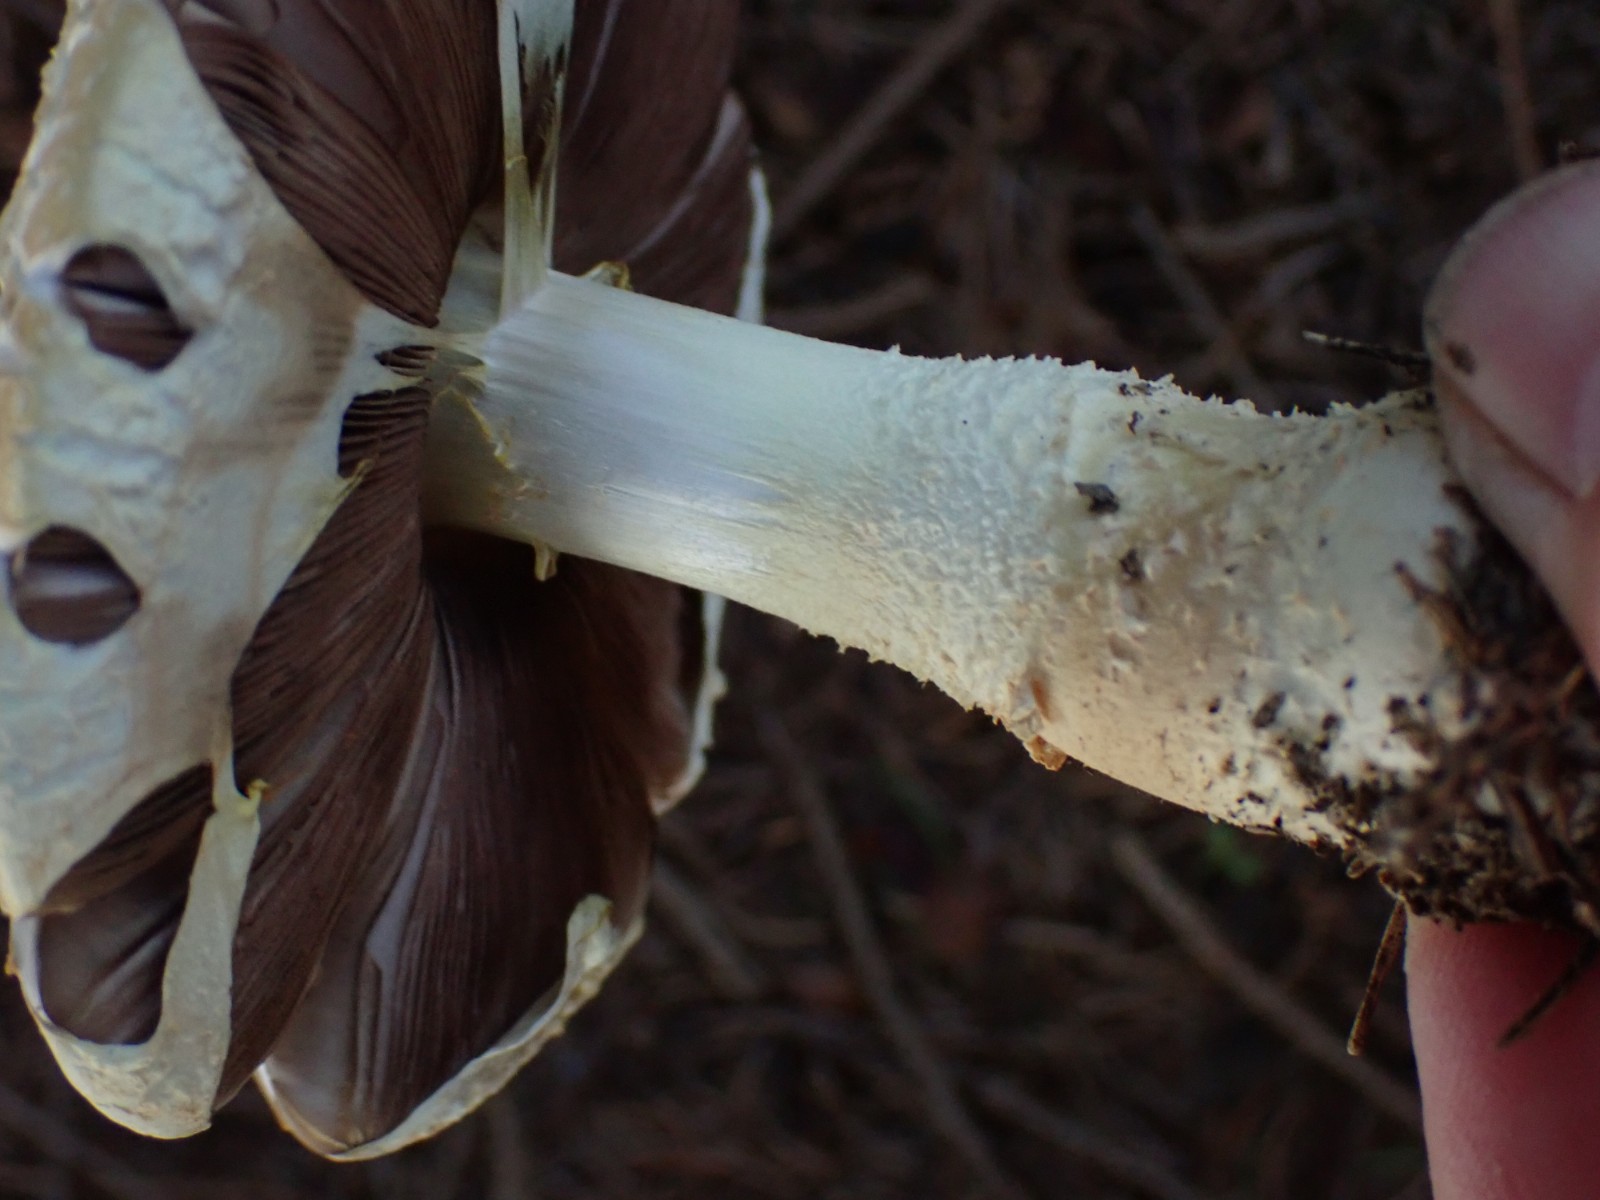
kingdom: Fungi
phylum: Basidiomycota
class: Agaricomycetes
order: Agaricales
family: Agaricaceae
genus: Agaricus
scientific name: Agaricus
